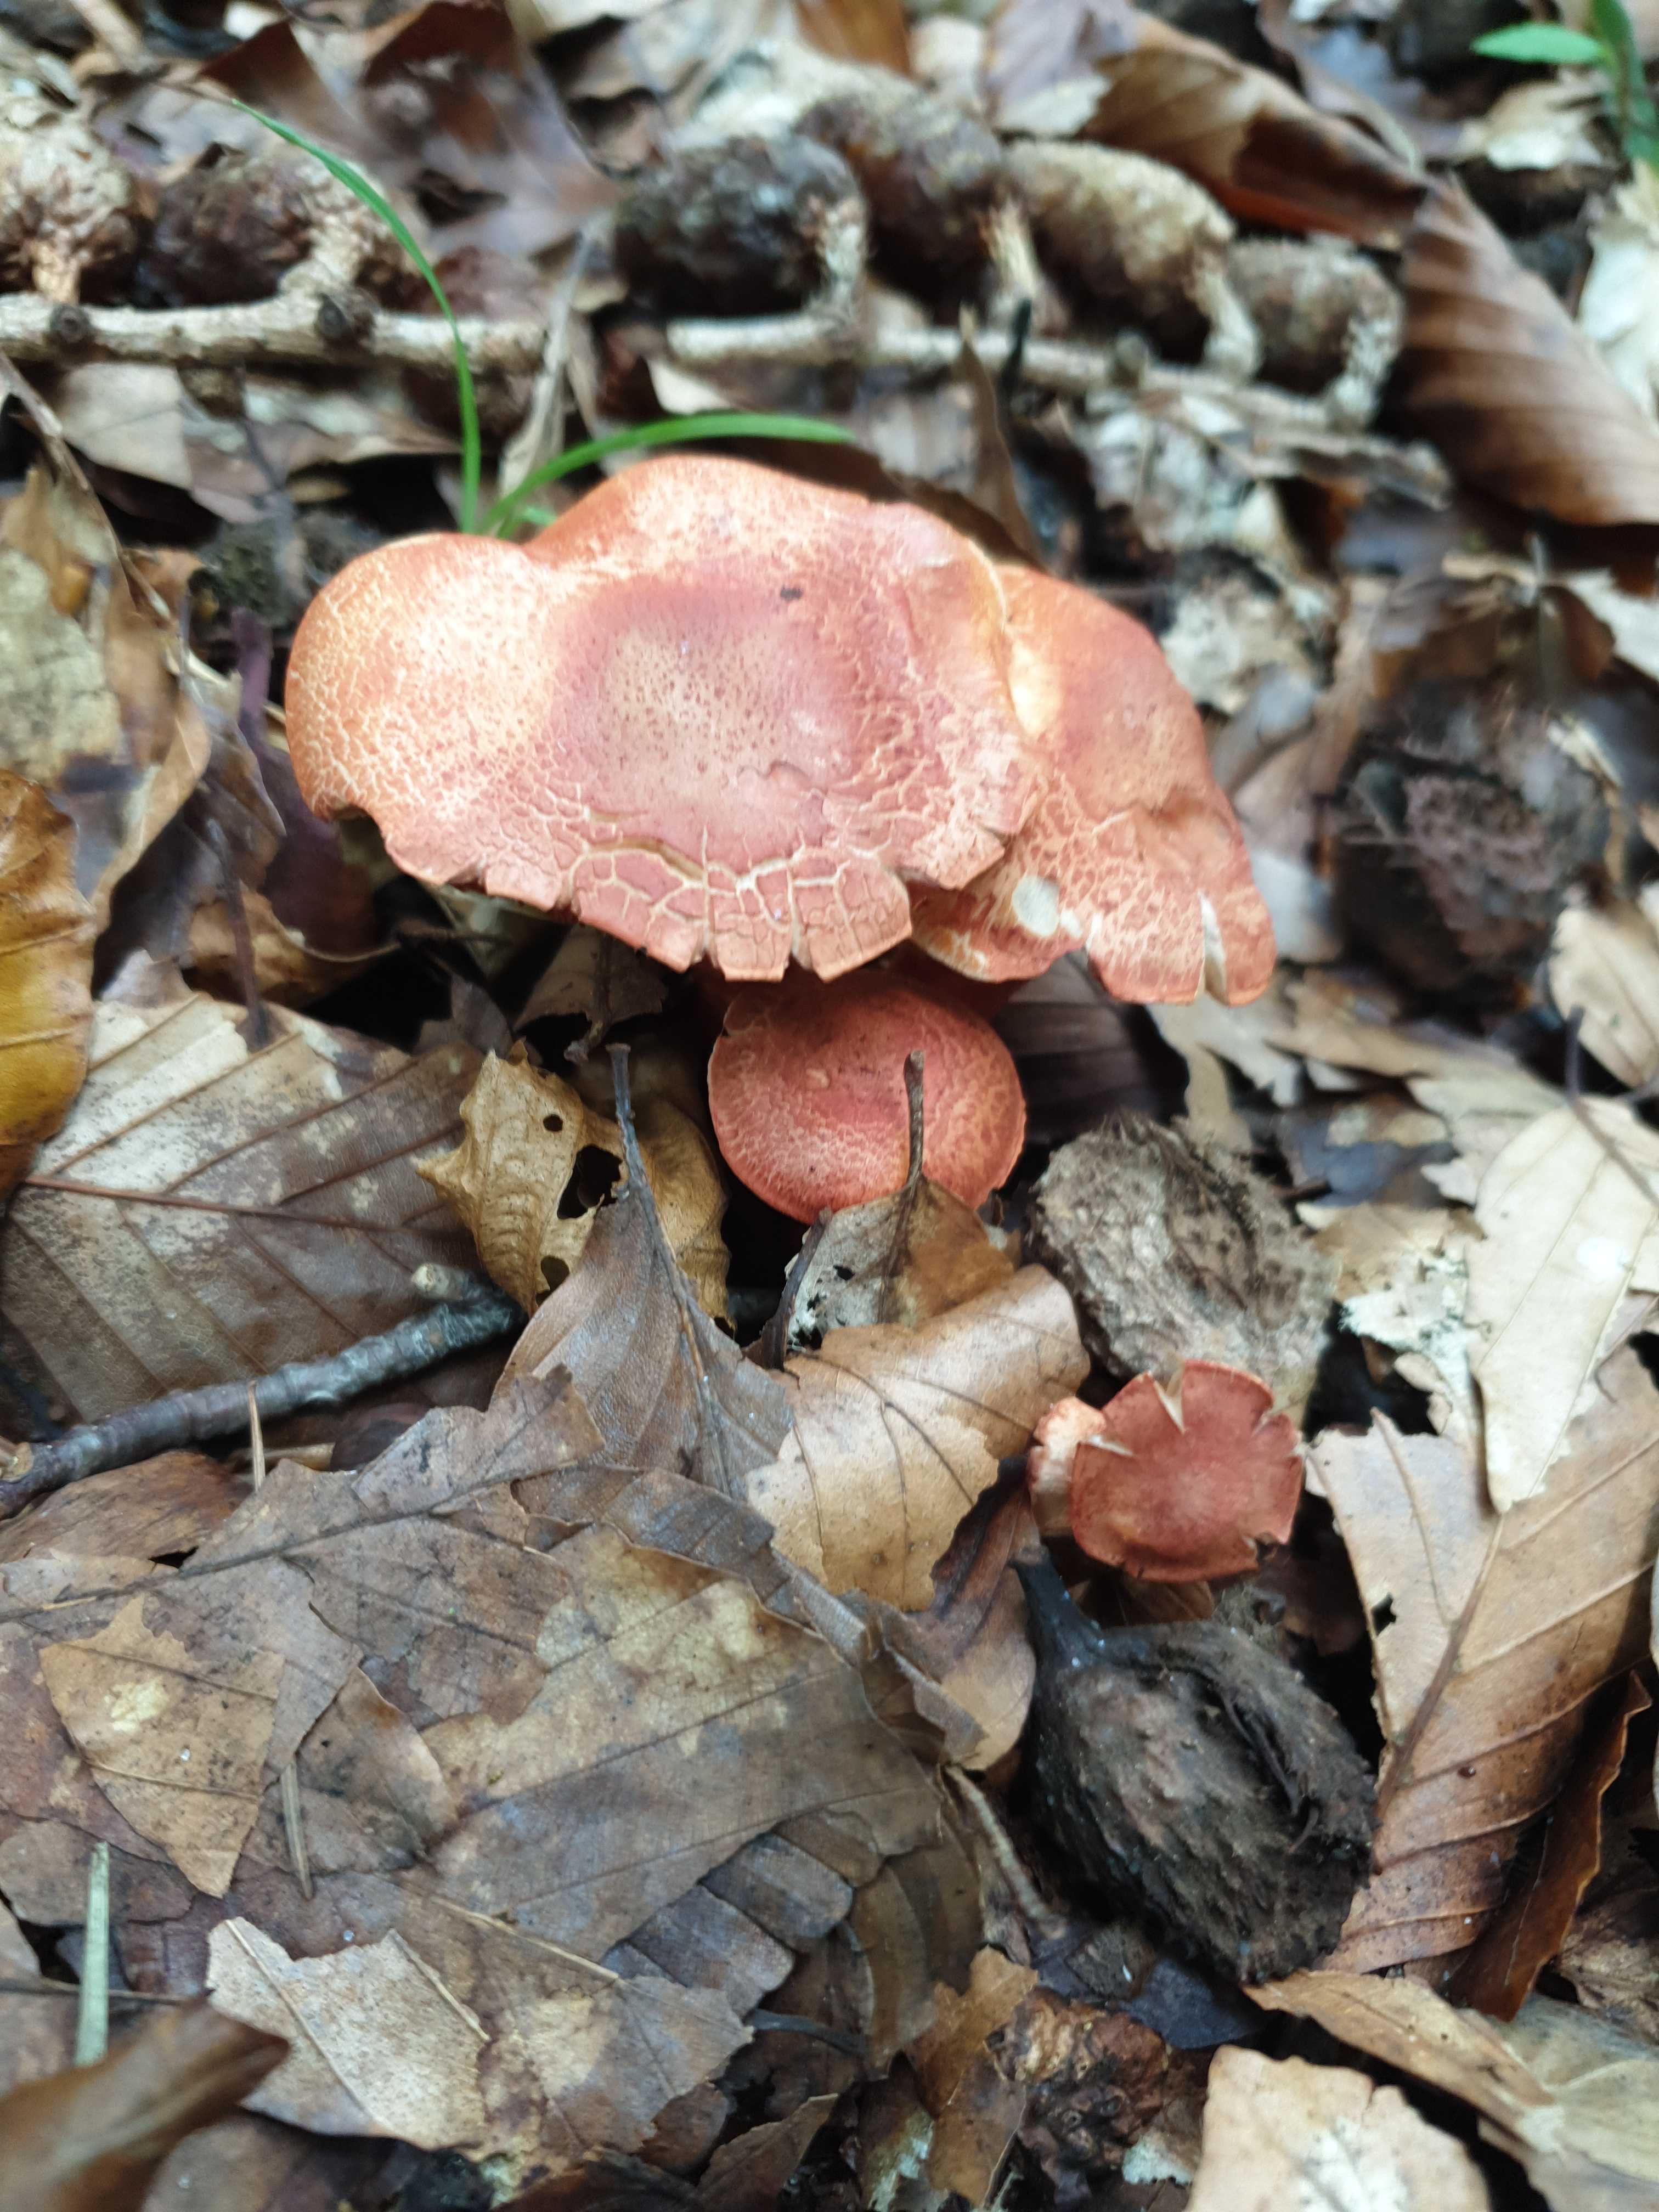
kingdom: Fungi
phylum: Basidiomycota
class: Agaricomycetes
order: Agaricales
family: Cortinariaceae
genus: Cortinarius
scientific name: Cortinarius bolaris
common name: cinnoberskællet slørhat
